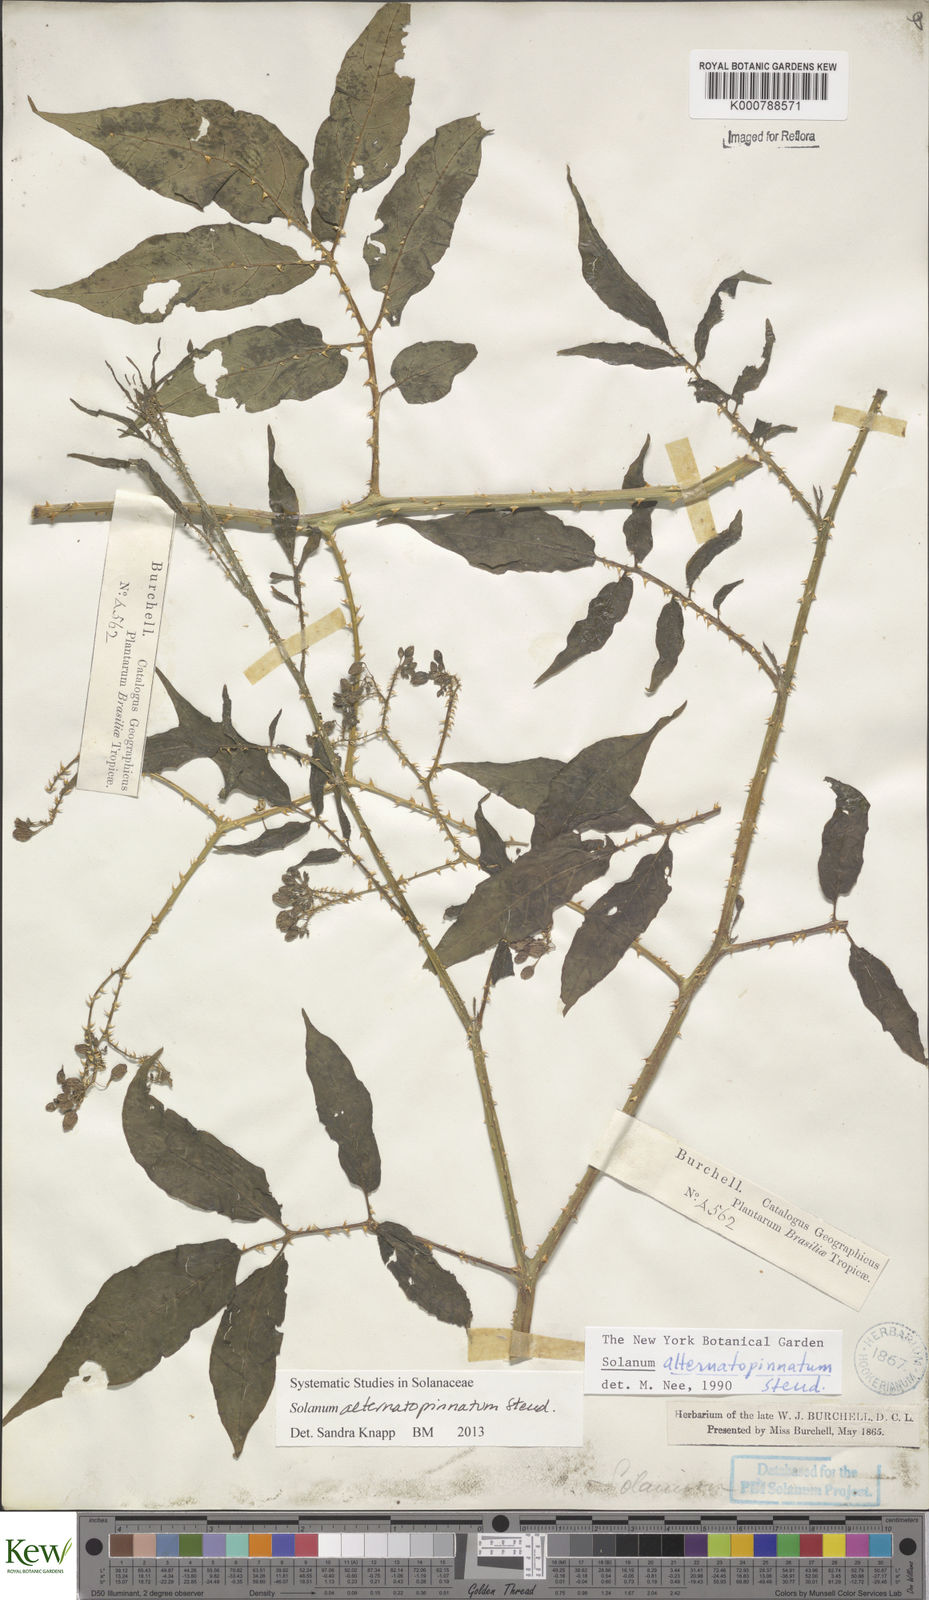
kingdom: Plantae
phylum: Tracheophyta
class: Magnoliopsida
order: Solanales
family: Solanaceae
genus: Solanum
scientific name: Solanum alternatopinnatum
